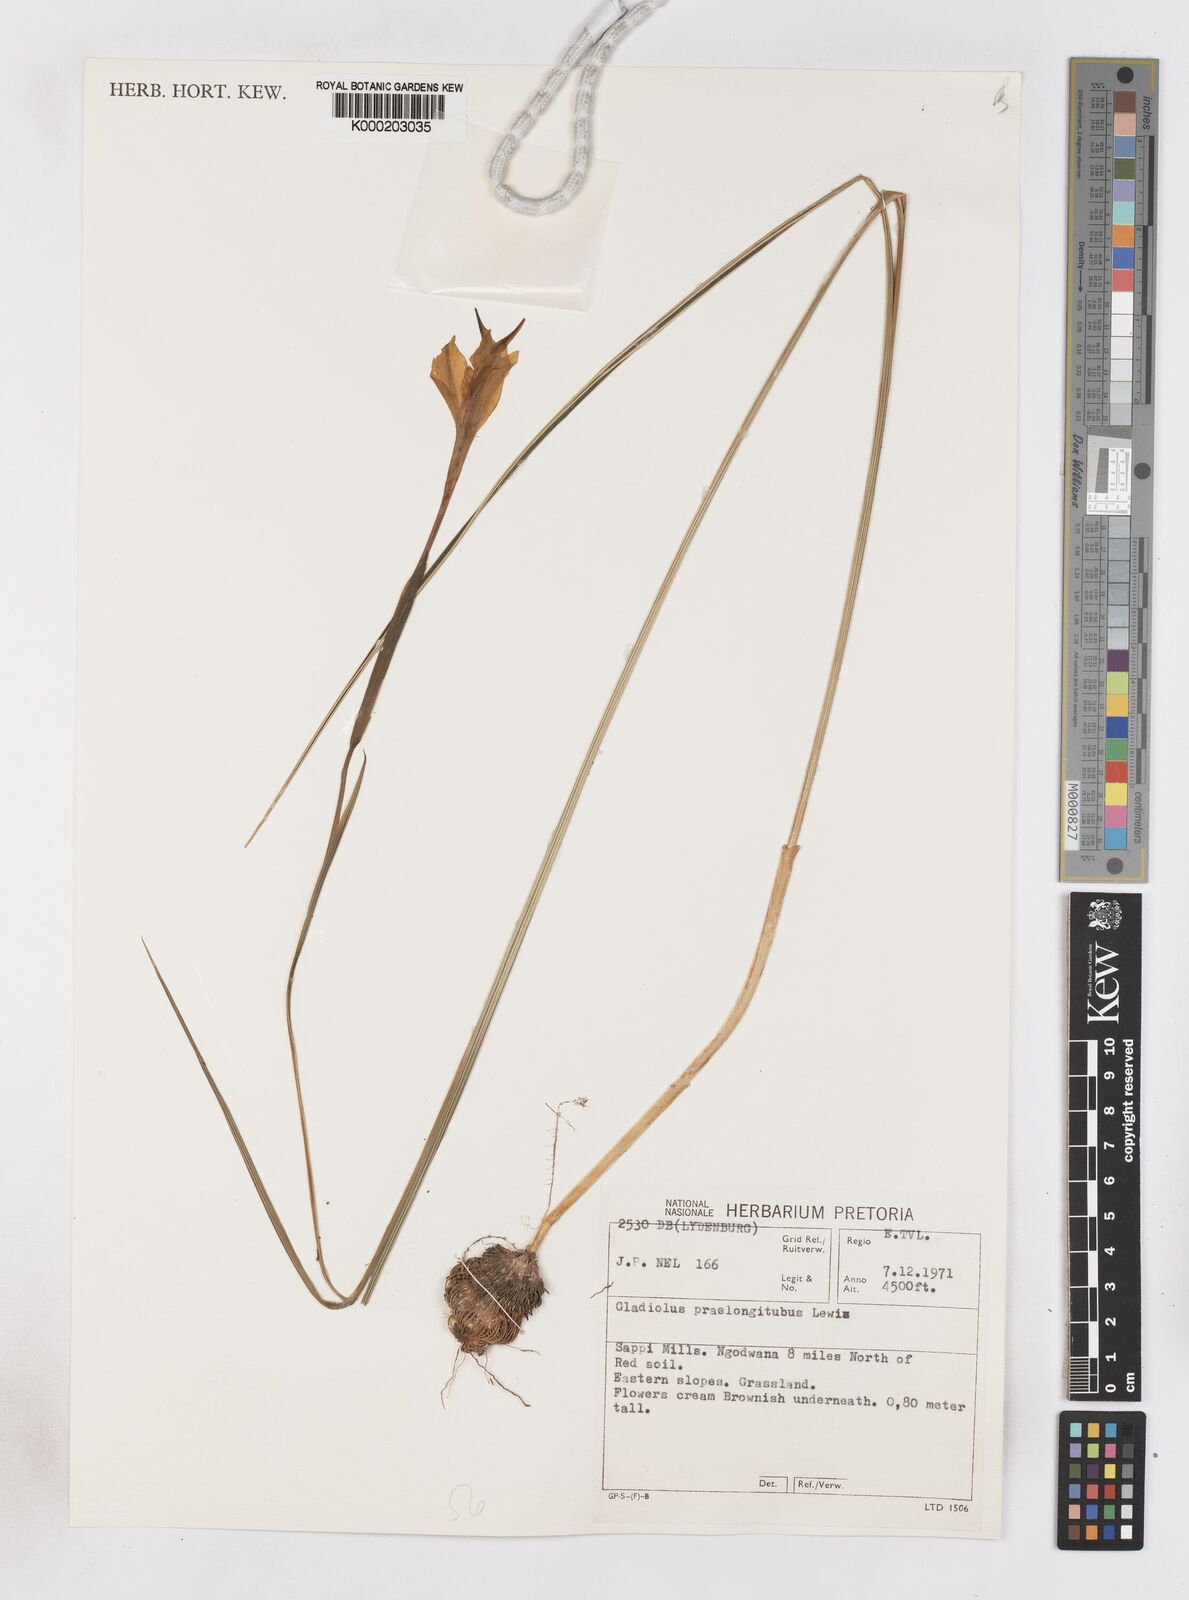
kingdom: Plantae
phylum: Tracheophyta
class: Liliopsida
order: Asparagales
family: Iridaceae
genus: Gladiolus
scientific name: Gladiolus longicollis
